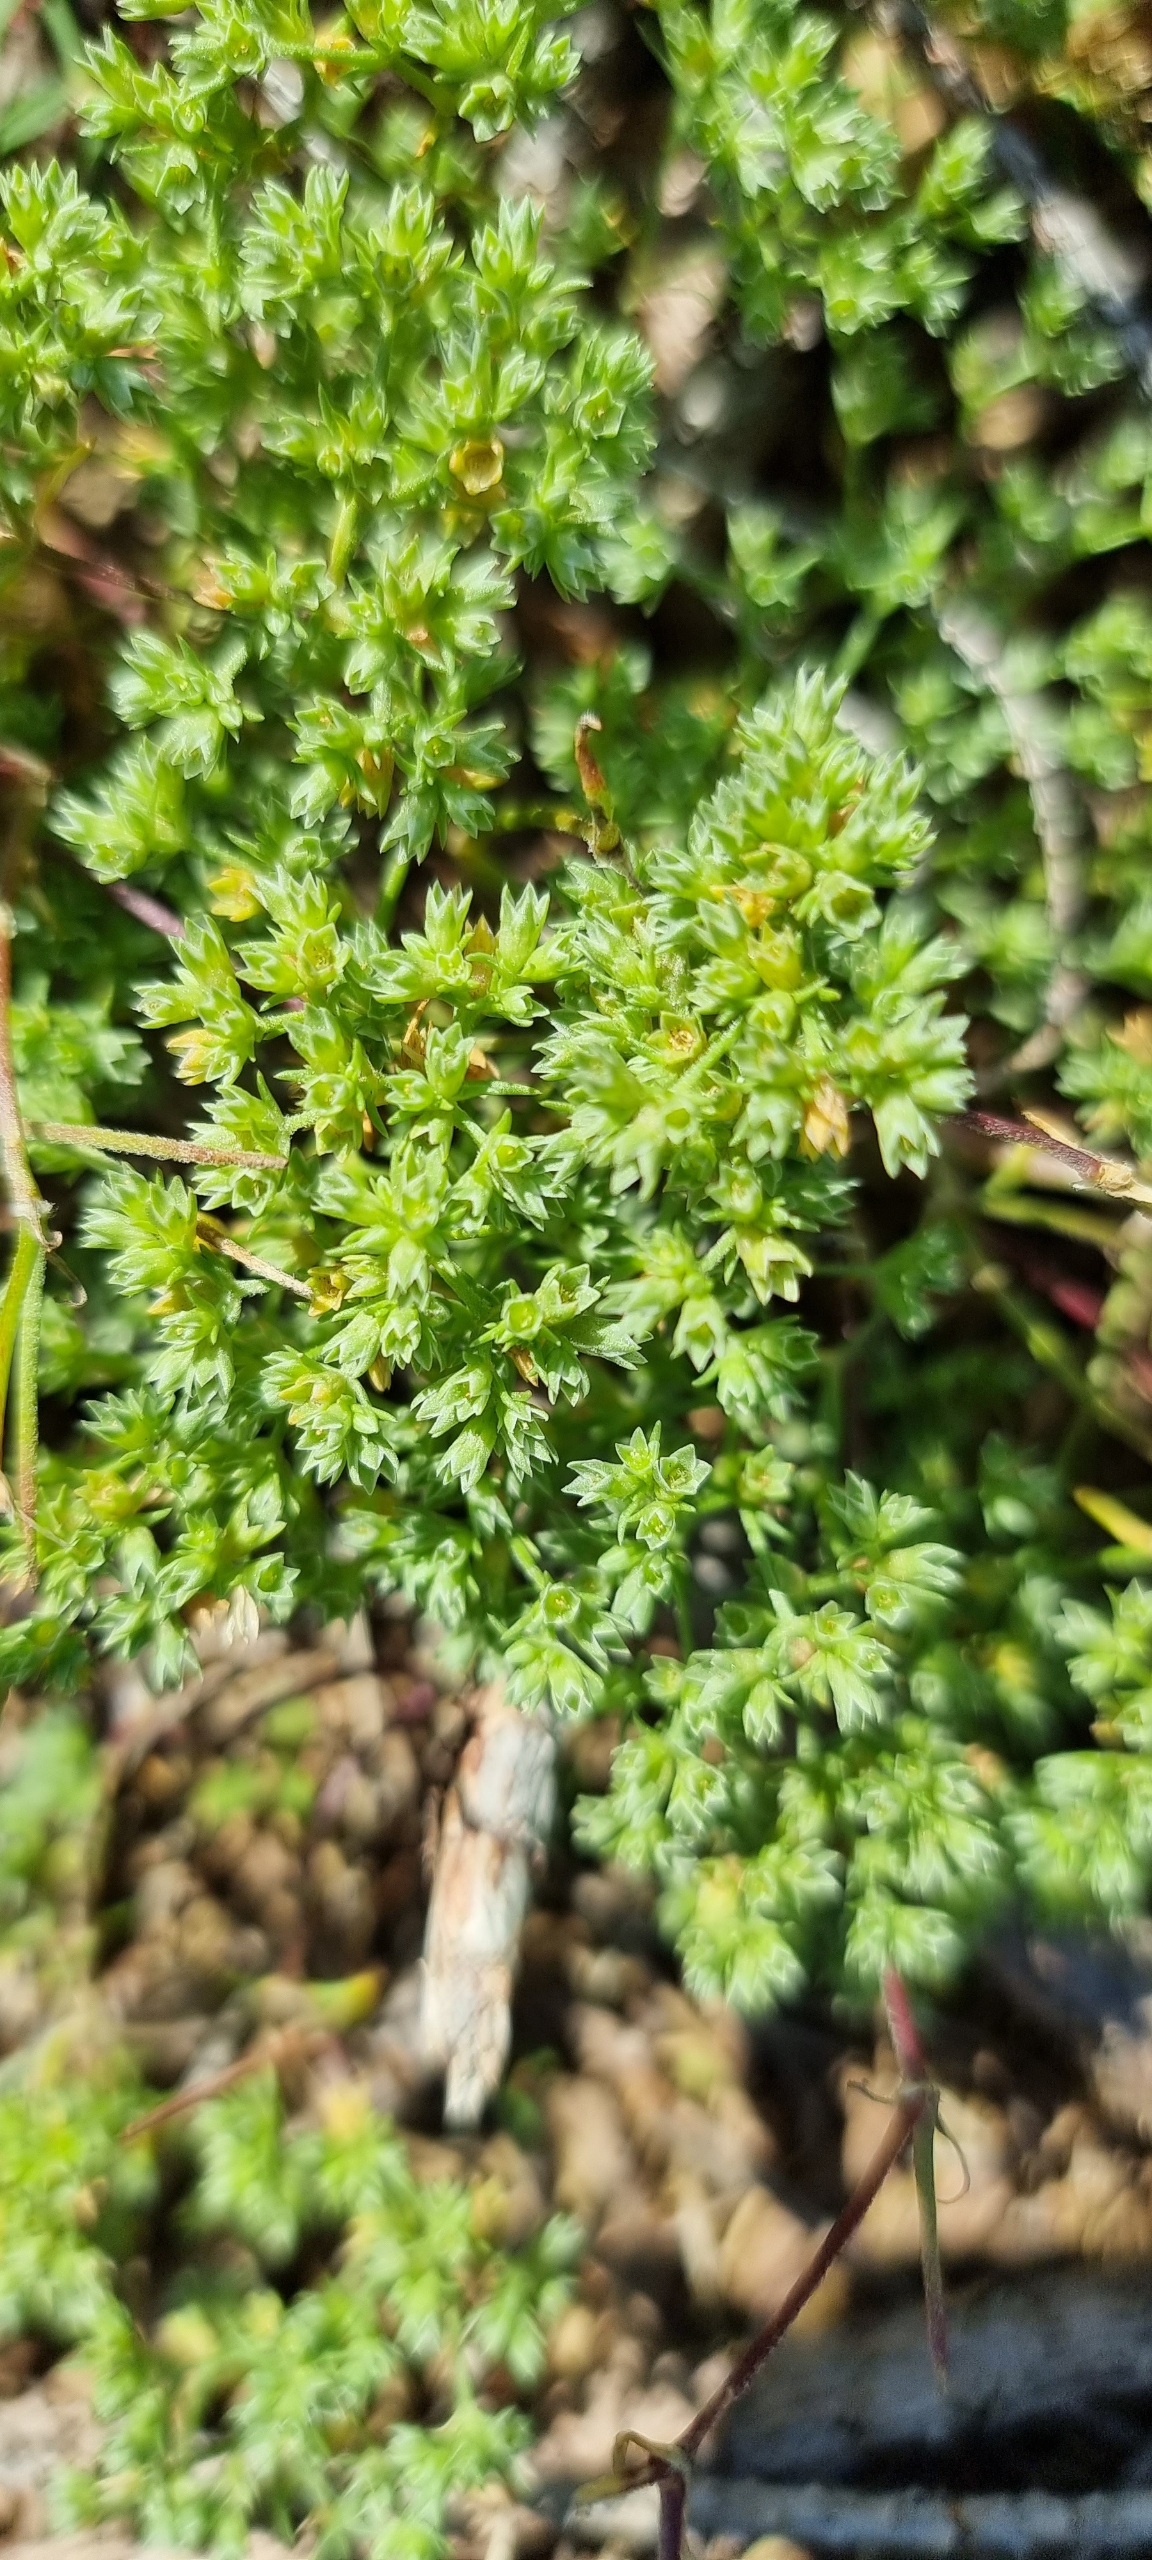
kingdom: Plantae
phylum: Tracheophyta
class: Magnoliopsida
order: Caryophyllales
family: Caryophyllaceae
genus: Scleranthus
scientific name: Scleranthus annuus
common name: Enårig knavel
